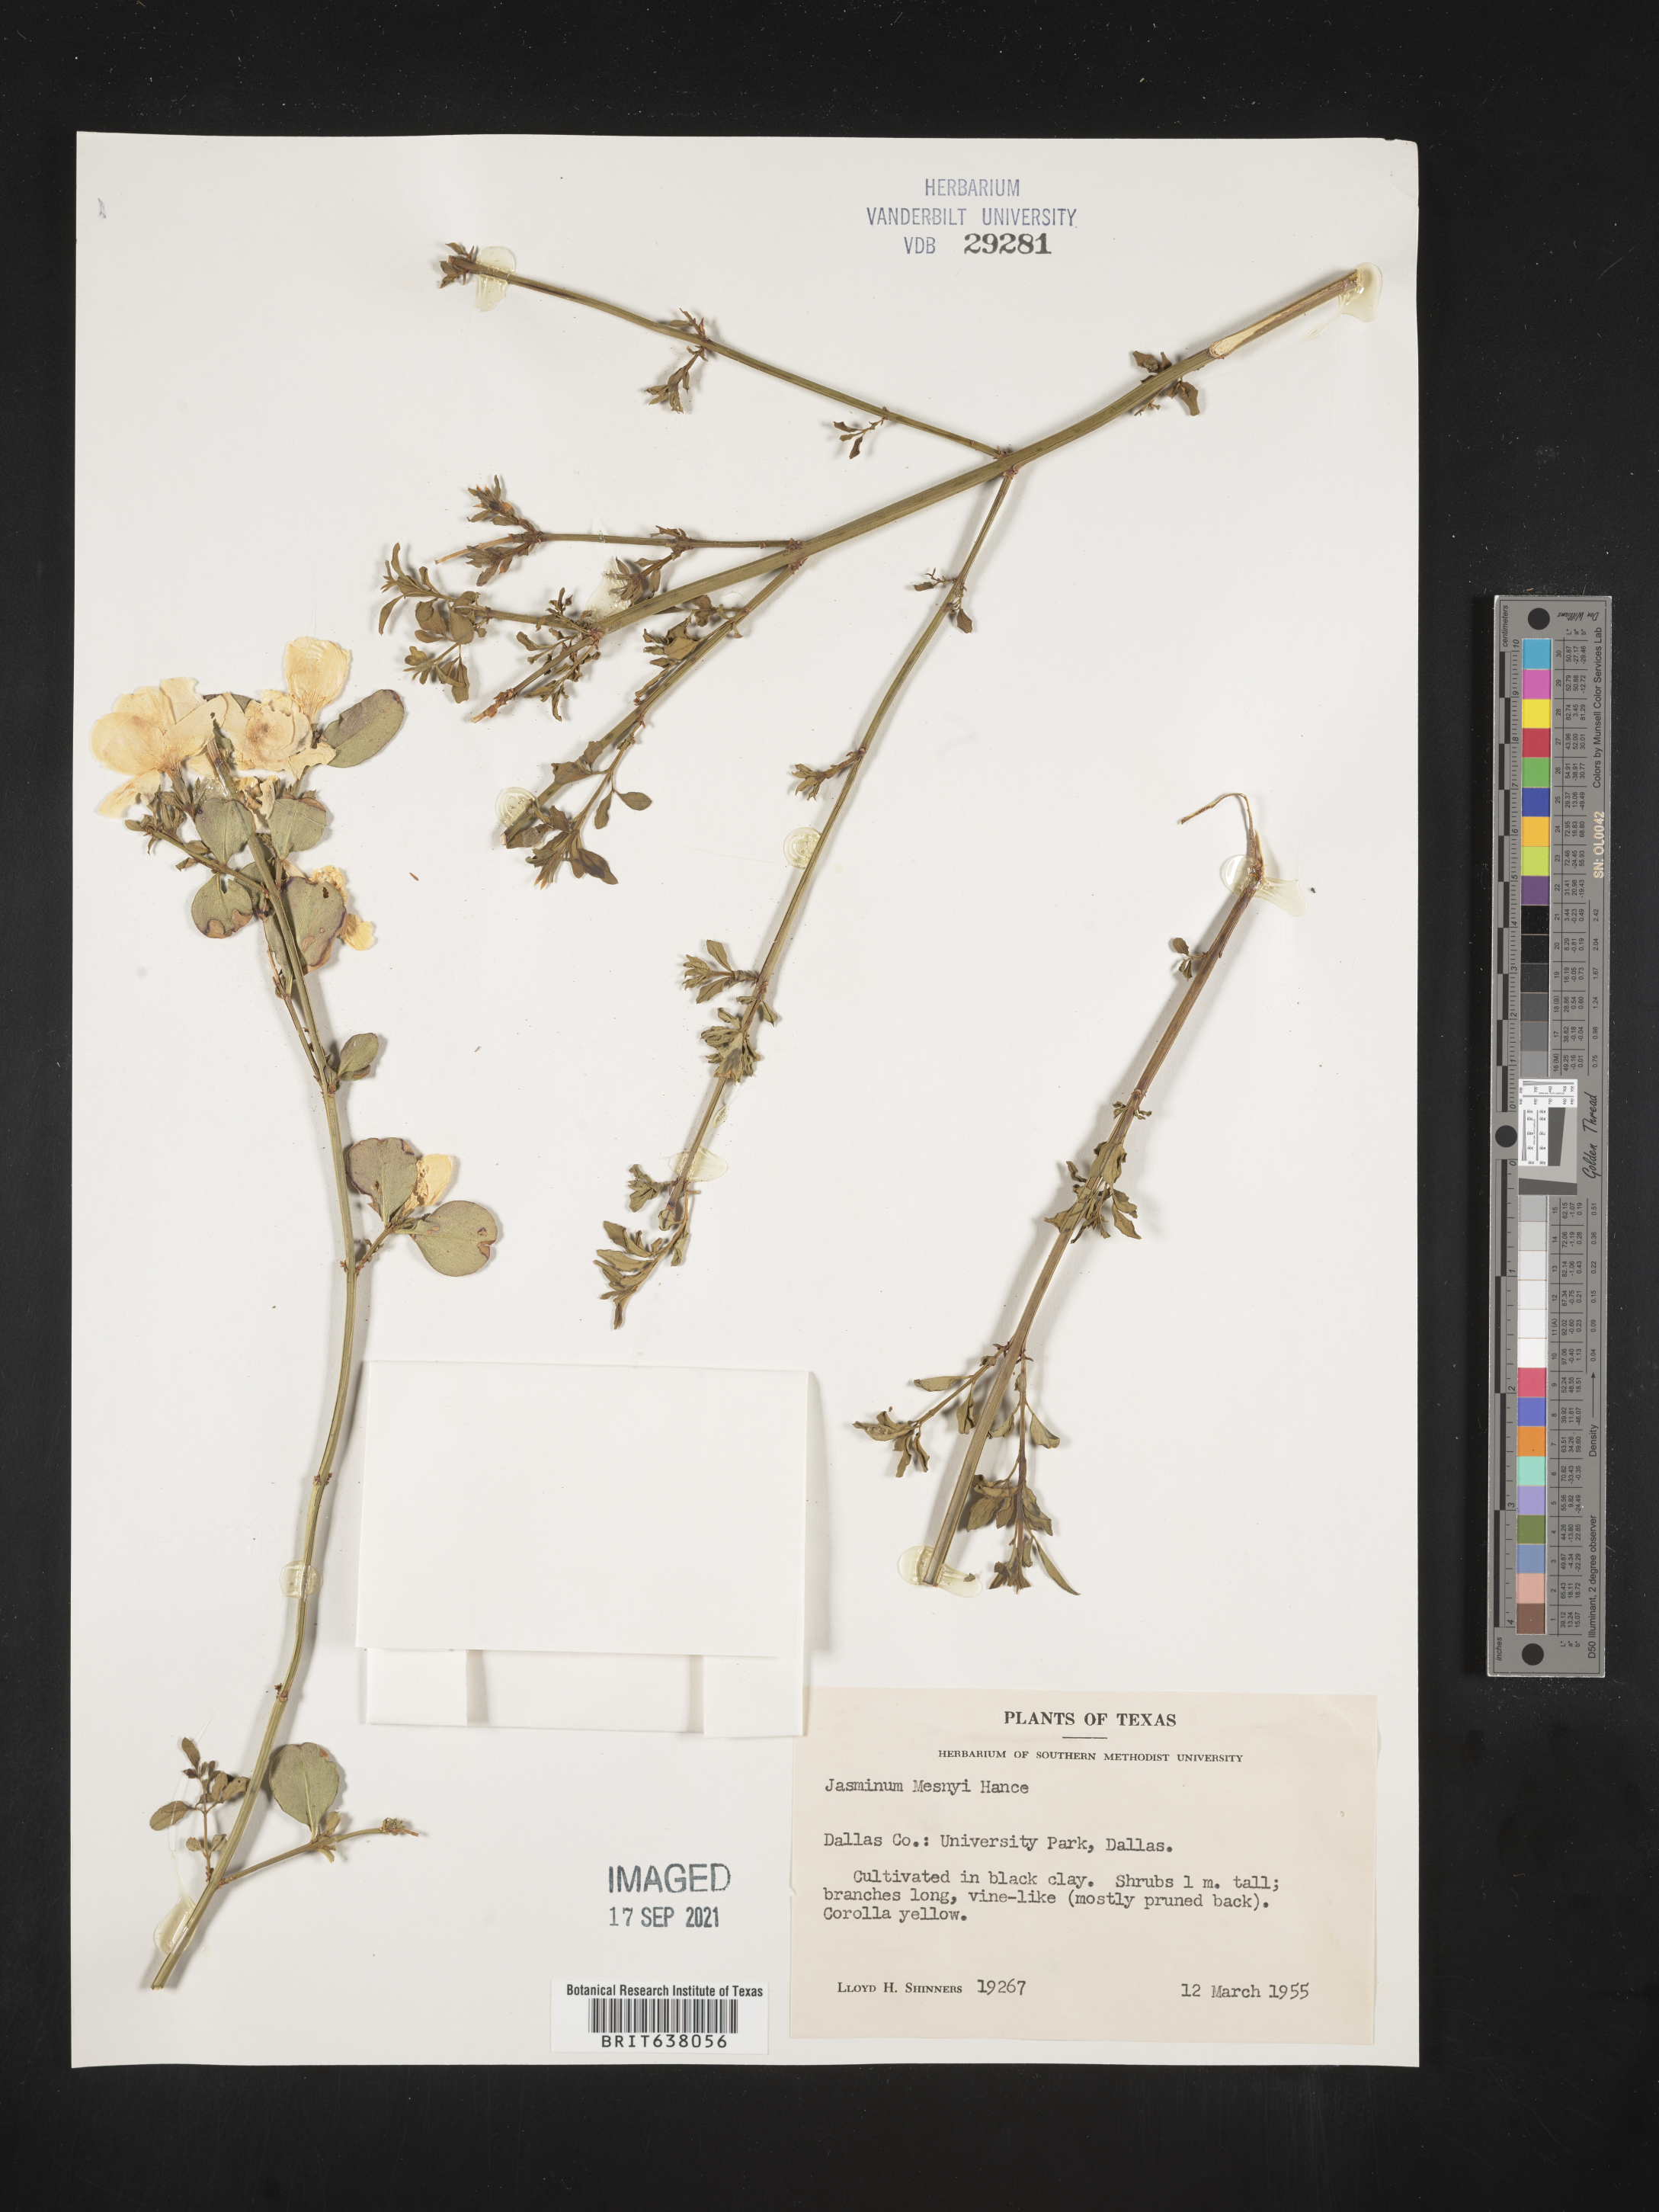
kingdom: Plantae
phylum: Tracheophyta
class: Magnoliopsida
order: Lamiales
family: Oleaceae
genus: Jasminum
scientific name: Jasminum
